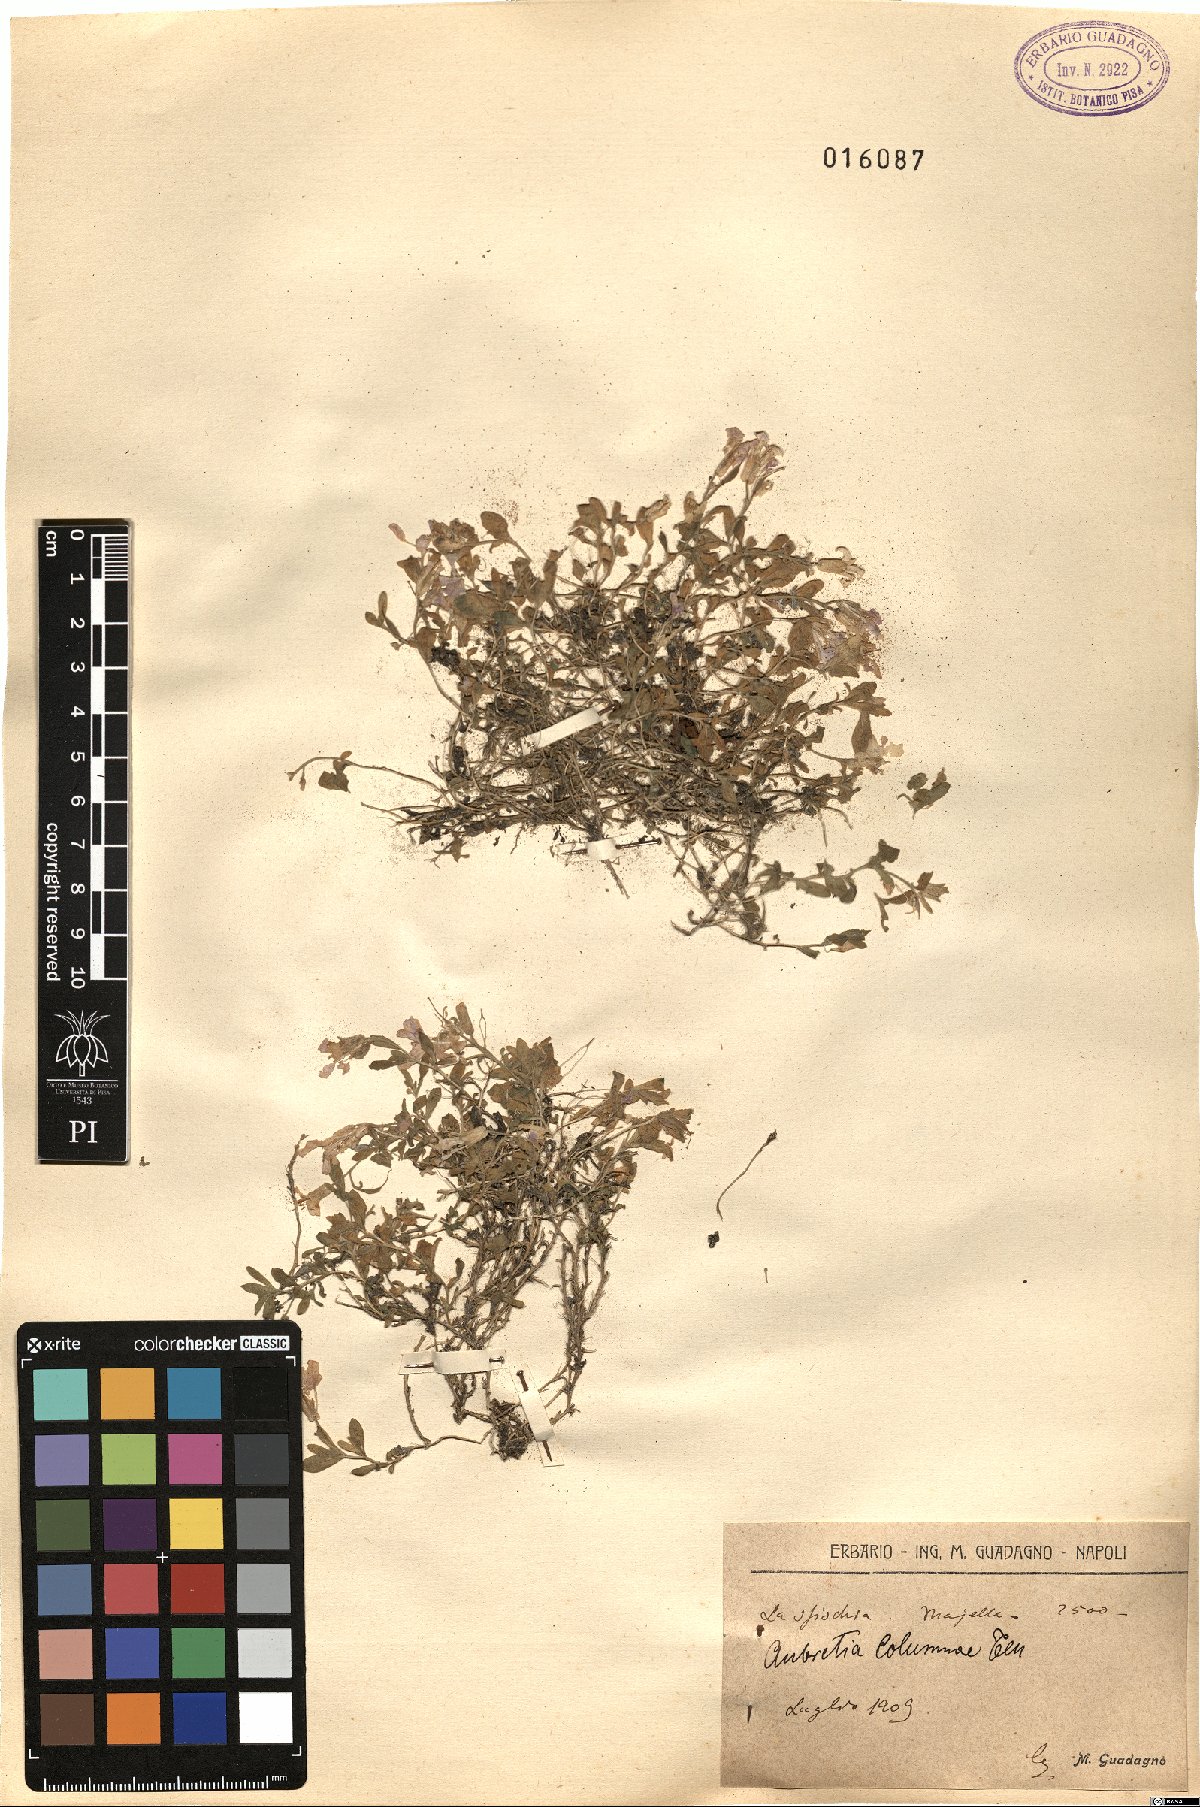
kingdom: Plantae
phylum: Tracheophyta
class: Magnoliopsida
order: Brassicales
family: Brassicaceae
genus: Aubrieta
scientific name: Aubrieta columnae
